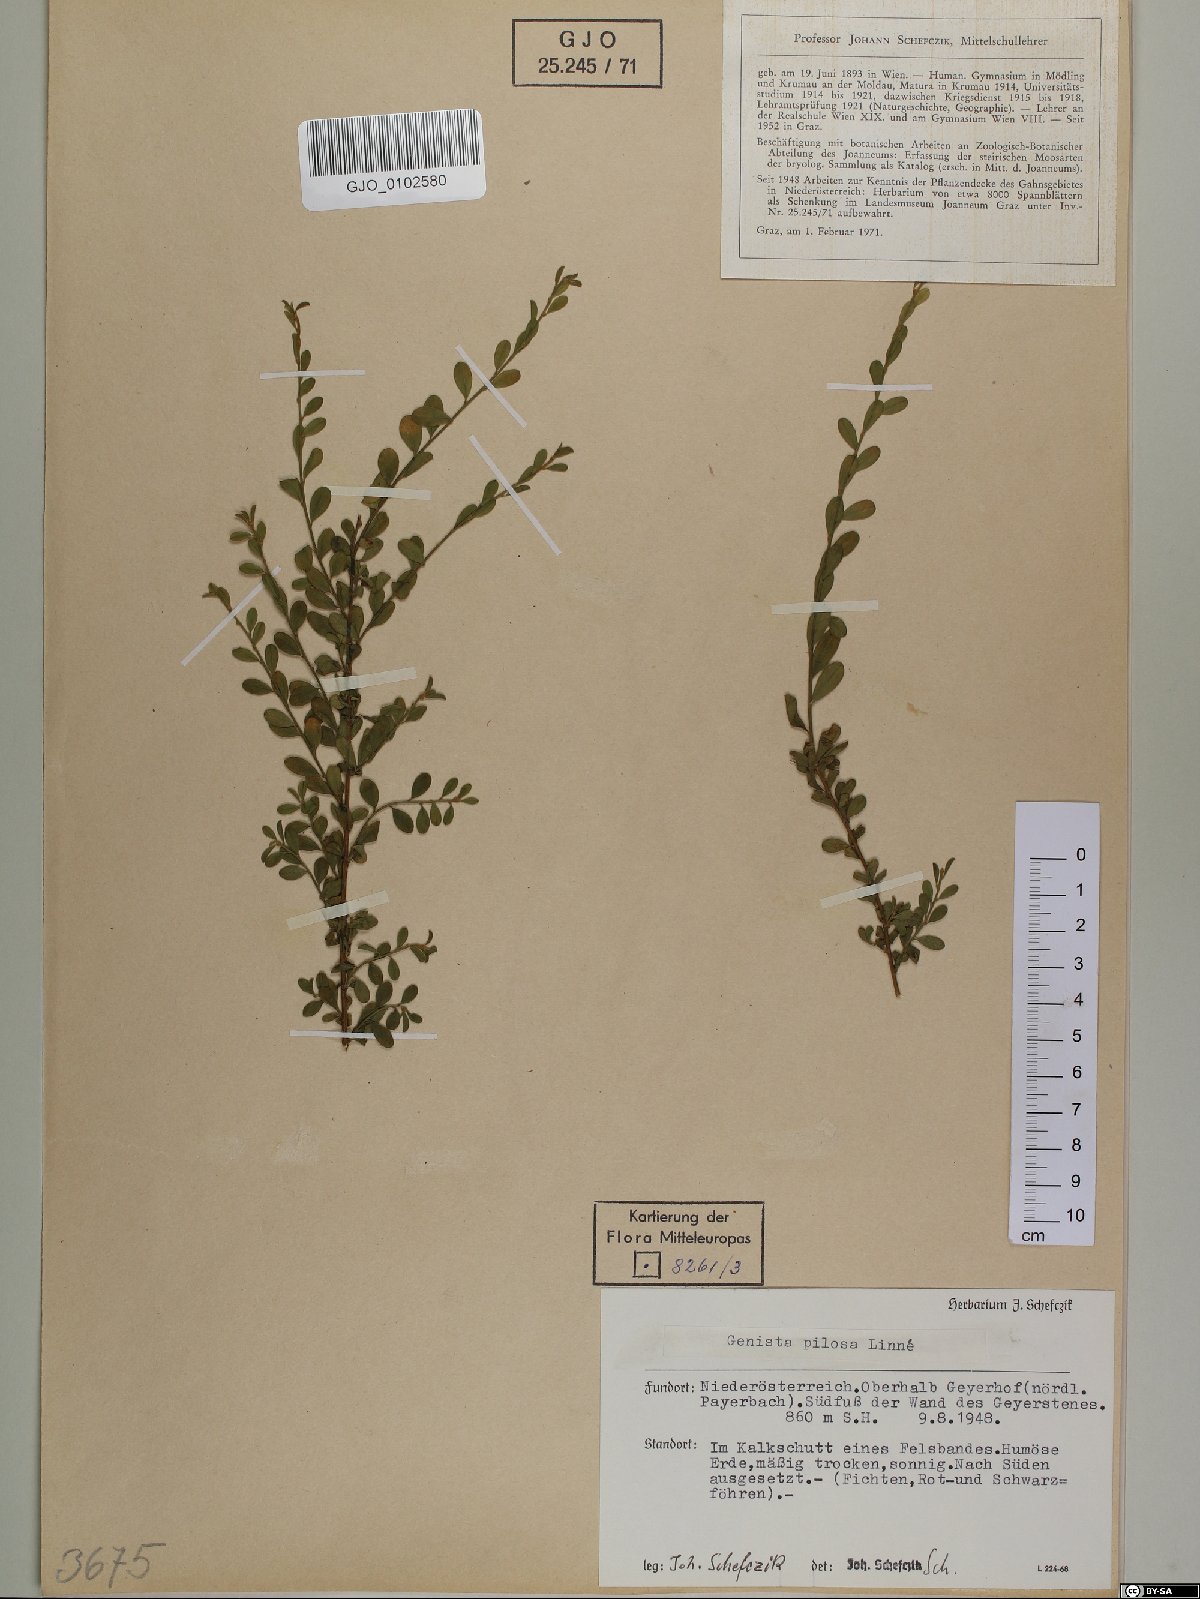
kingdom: Plantae
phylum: Tracheophyta
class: Magnoliopsida
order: Fabales
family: Fabaceae
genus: Genista
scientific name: Genista pilosa
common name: Hairy greenweed
